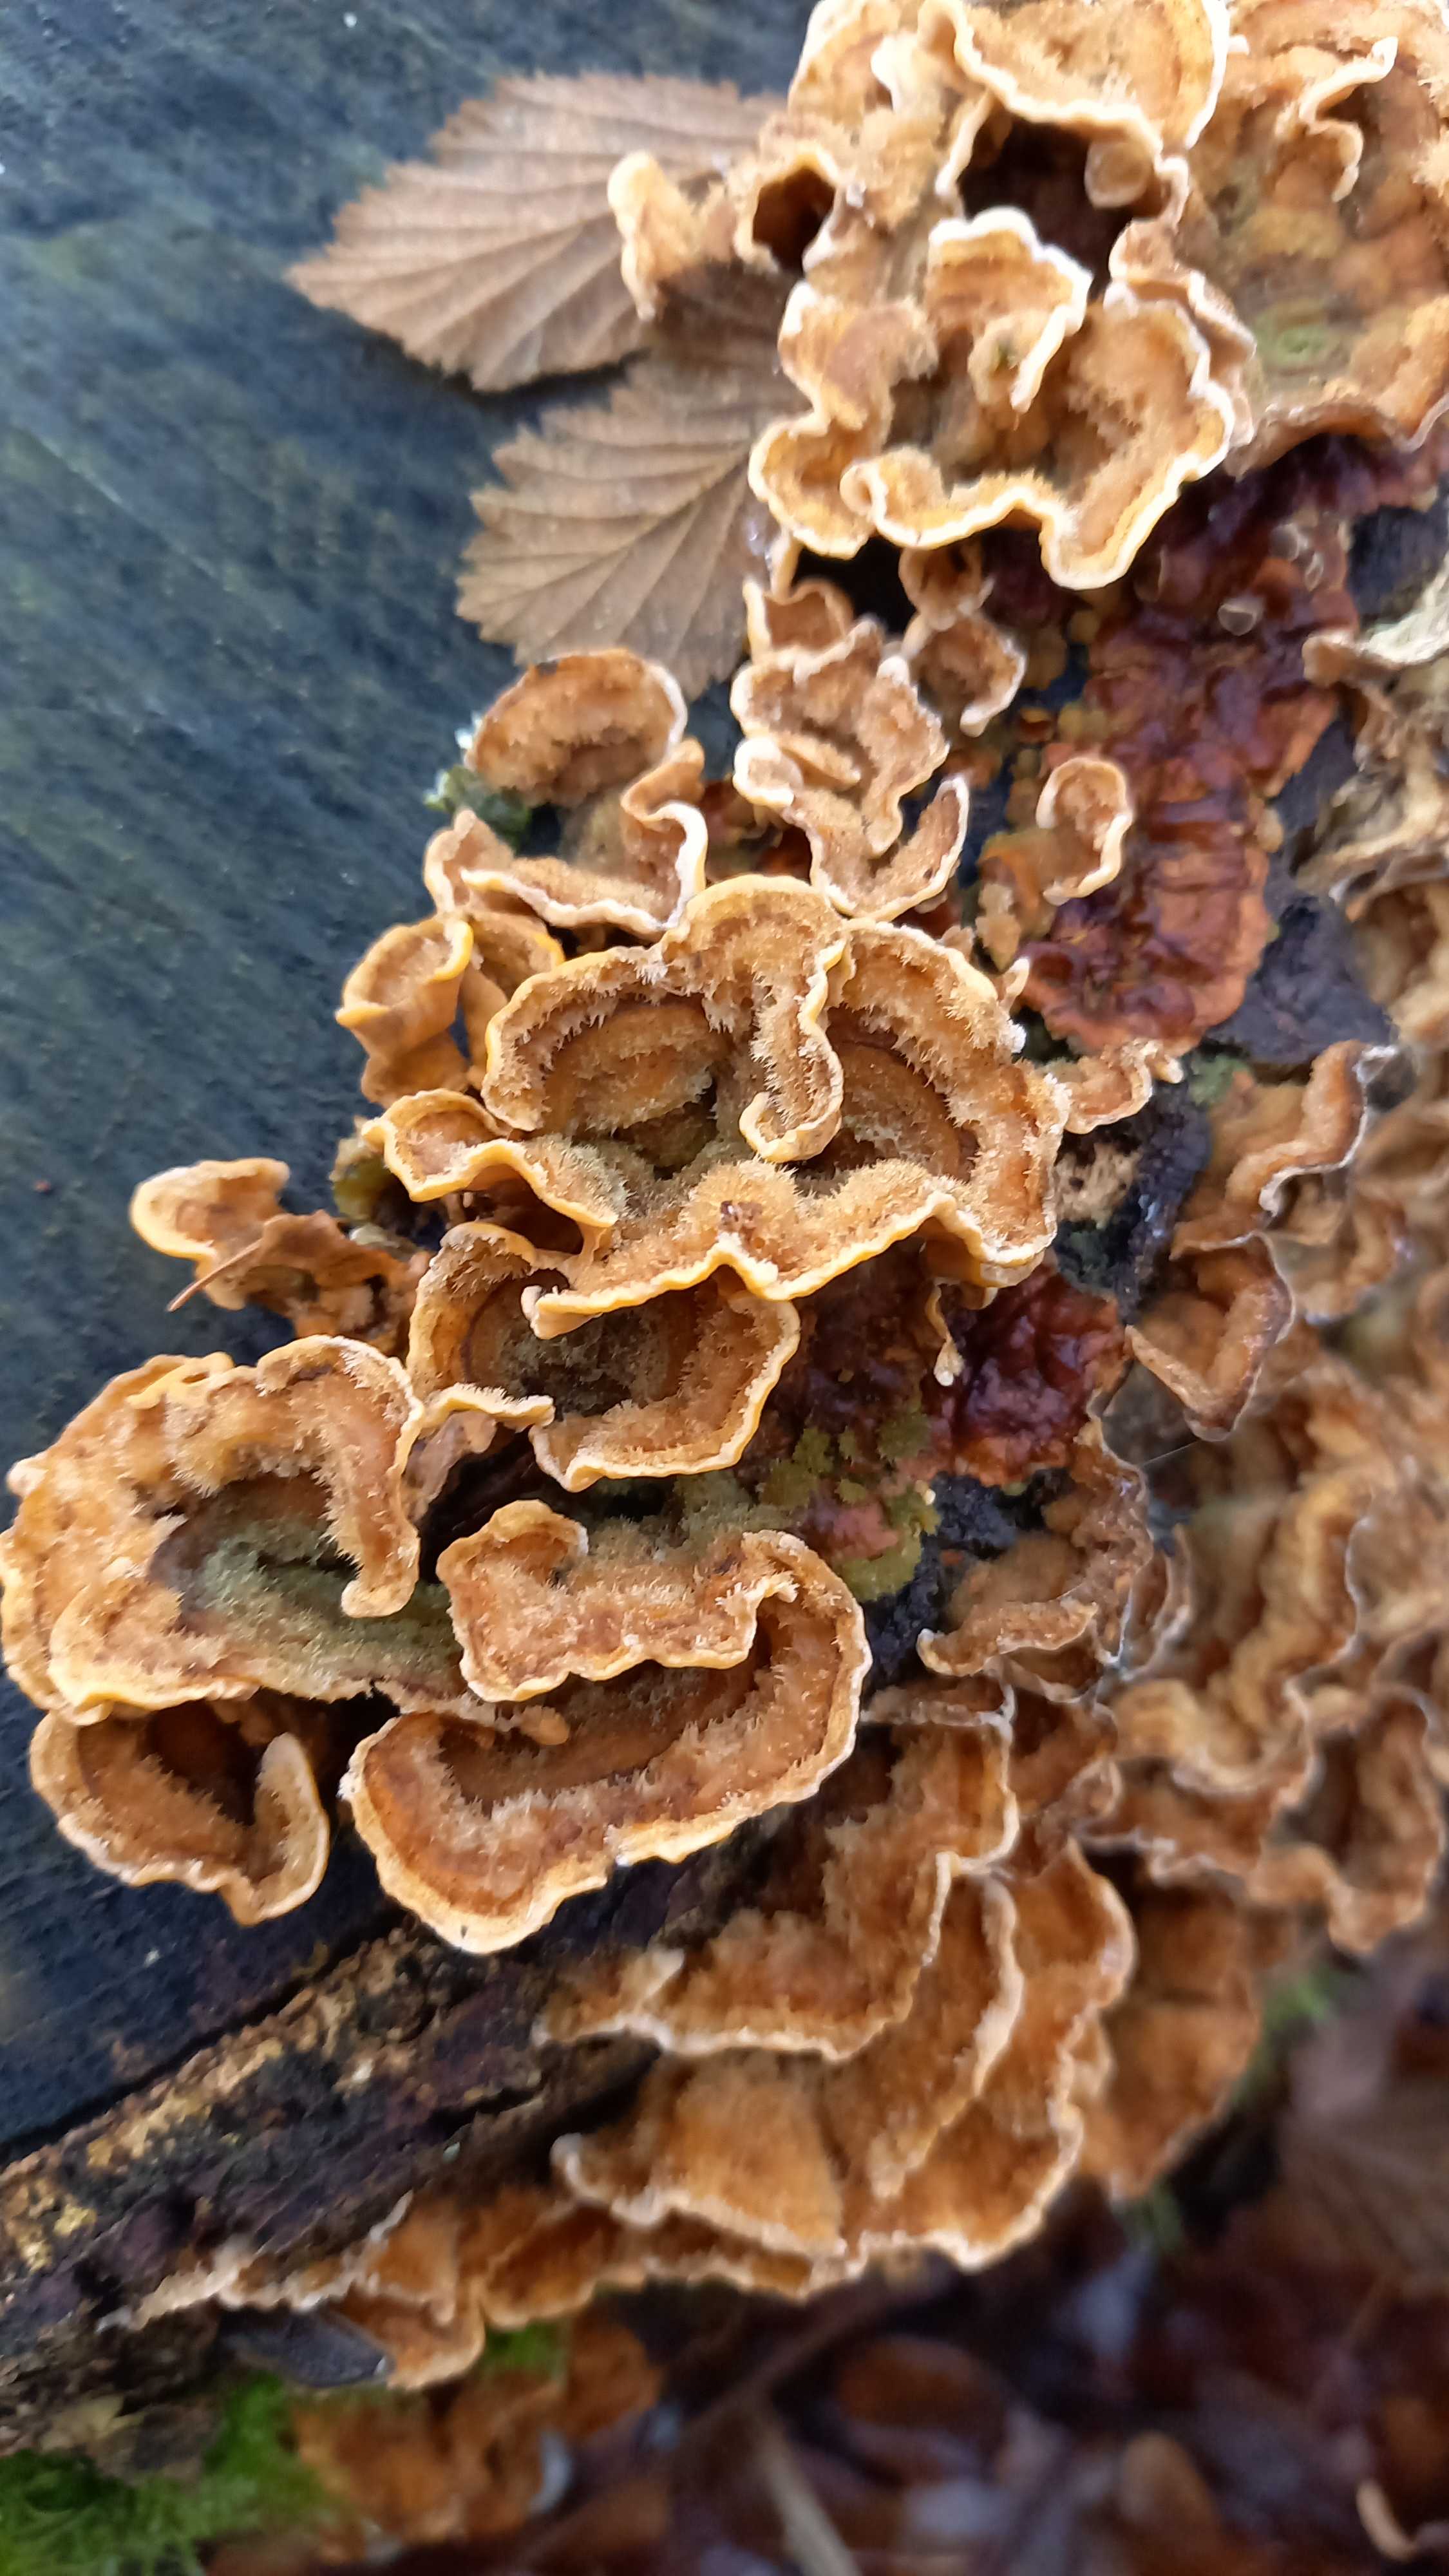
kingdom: Fungi
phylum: Basidiomycota
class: Agaricomycetes
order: Russulales
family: Stereaceae
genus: Stereum
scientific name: Stereum hirsutum
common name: håret lædersvamp
